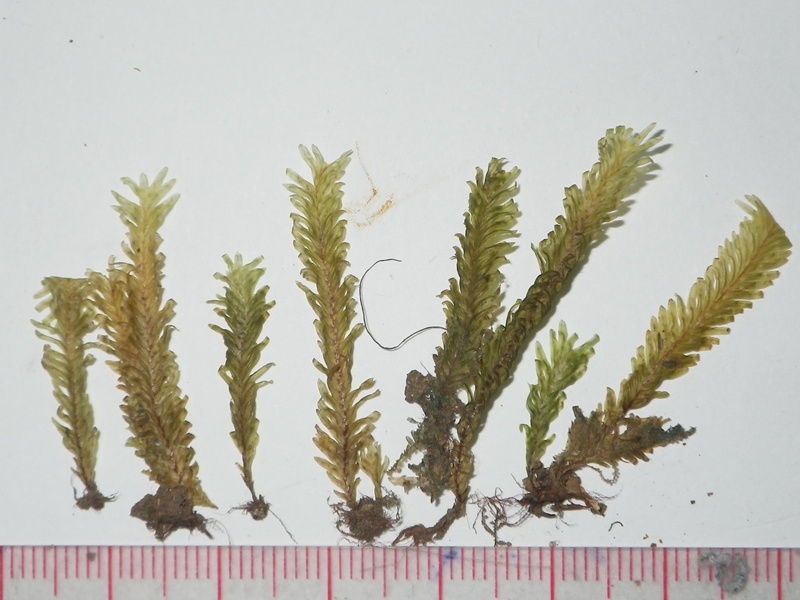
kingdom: Plantae
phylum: Bryophyta
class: Bryopsida
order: Dicranales
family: Fissidentaceae
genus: Fissidens
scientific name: Fissidens polypodioides
